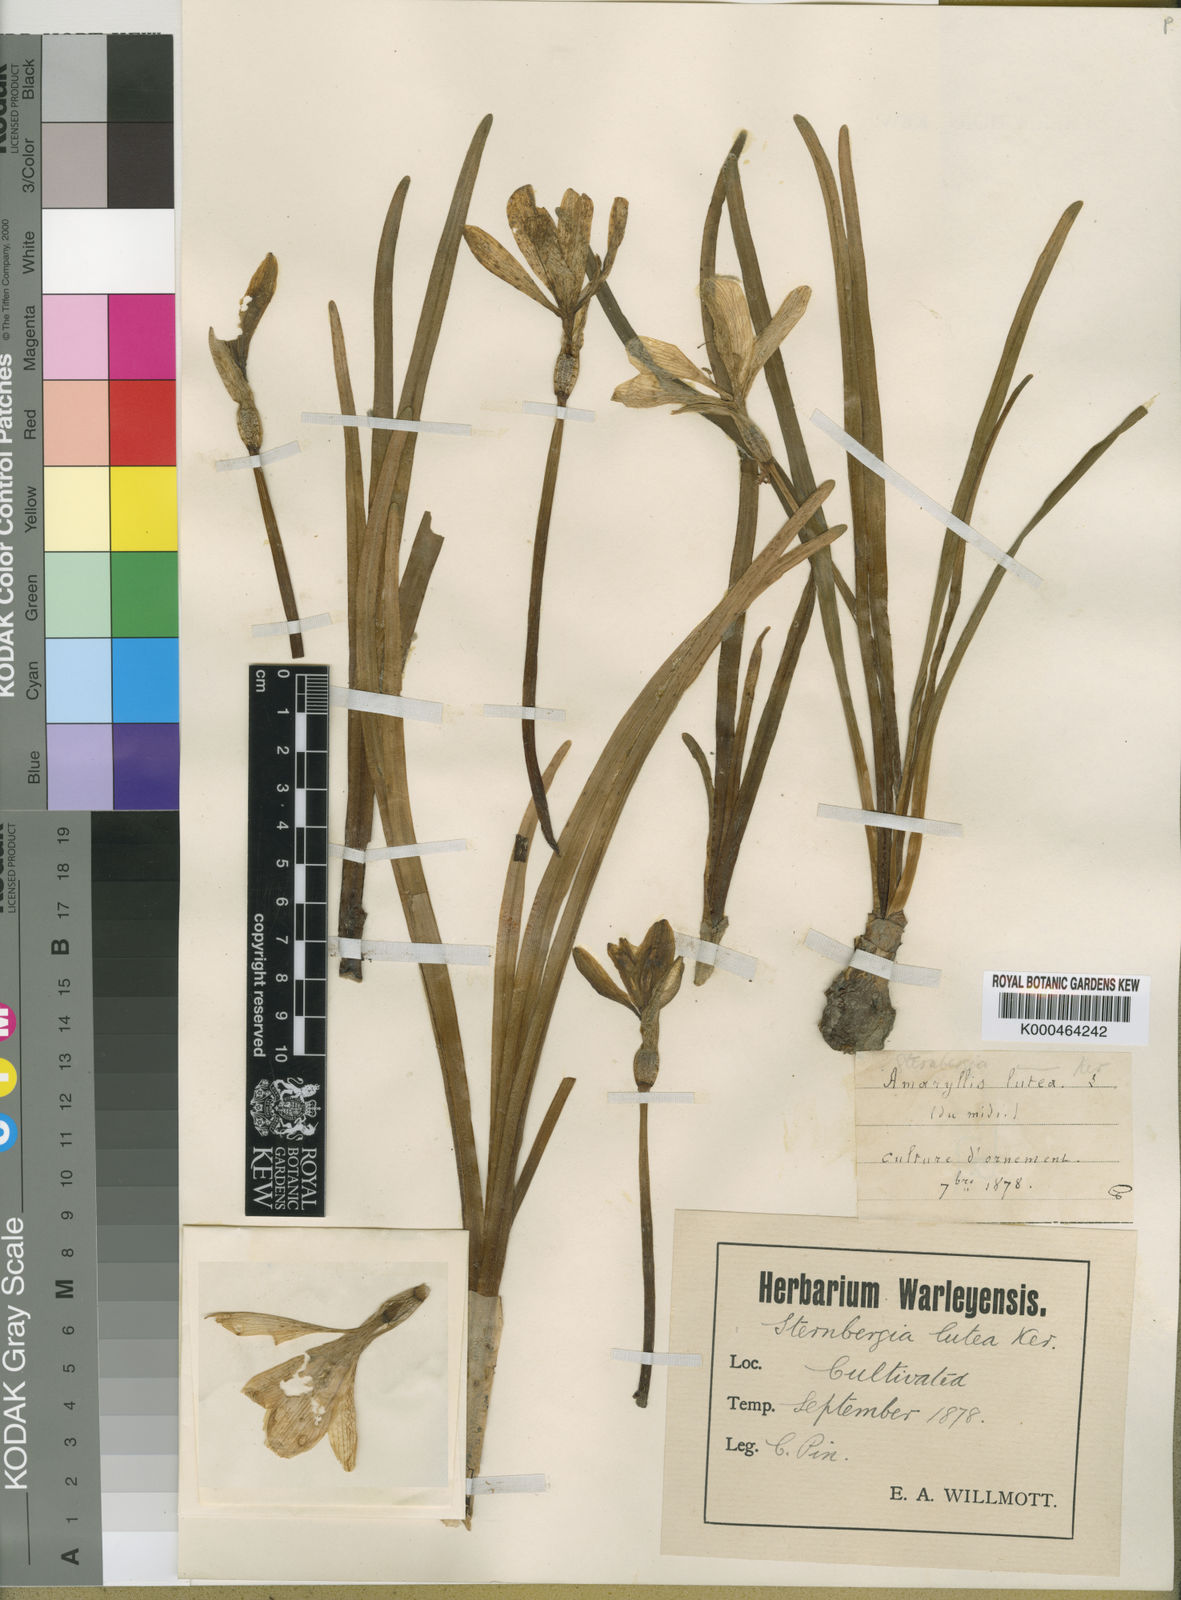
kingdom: Plantae
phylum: Tracheophyta
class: Liliopsida
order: Asparagales
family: Amaryllidaceae
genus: Sternbergia
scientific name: Sternbergia
